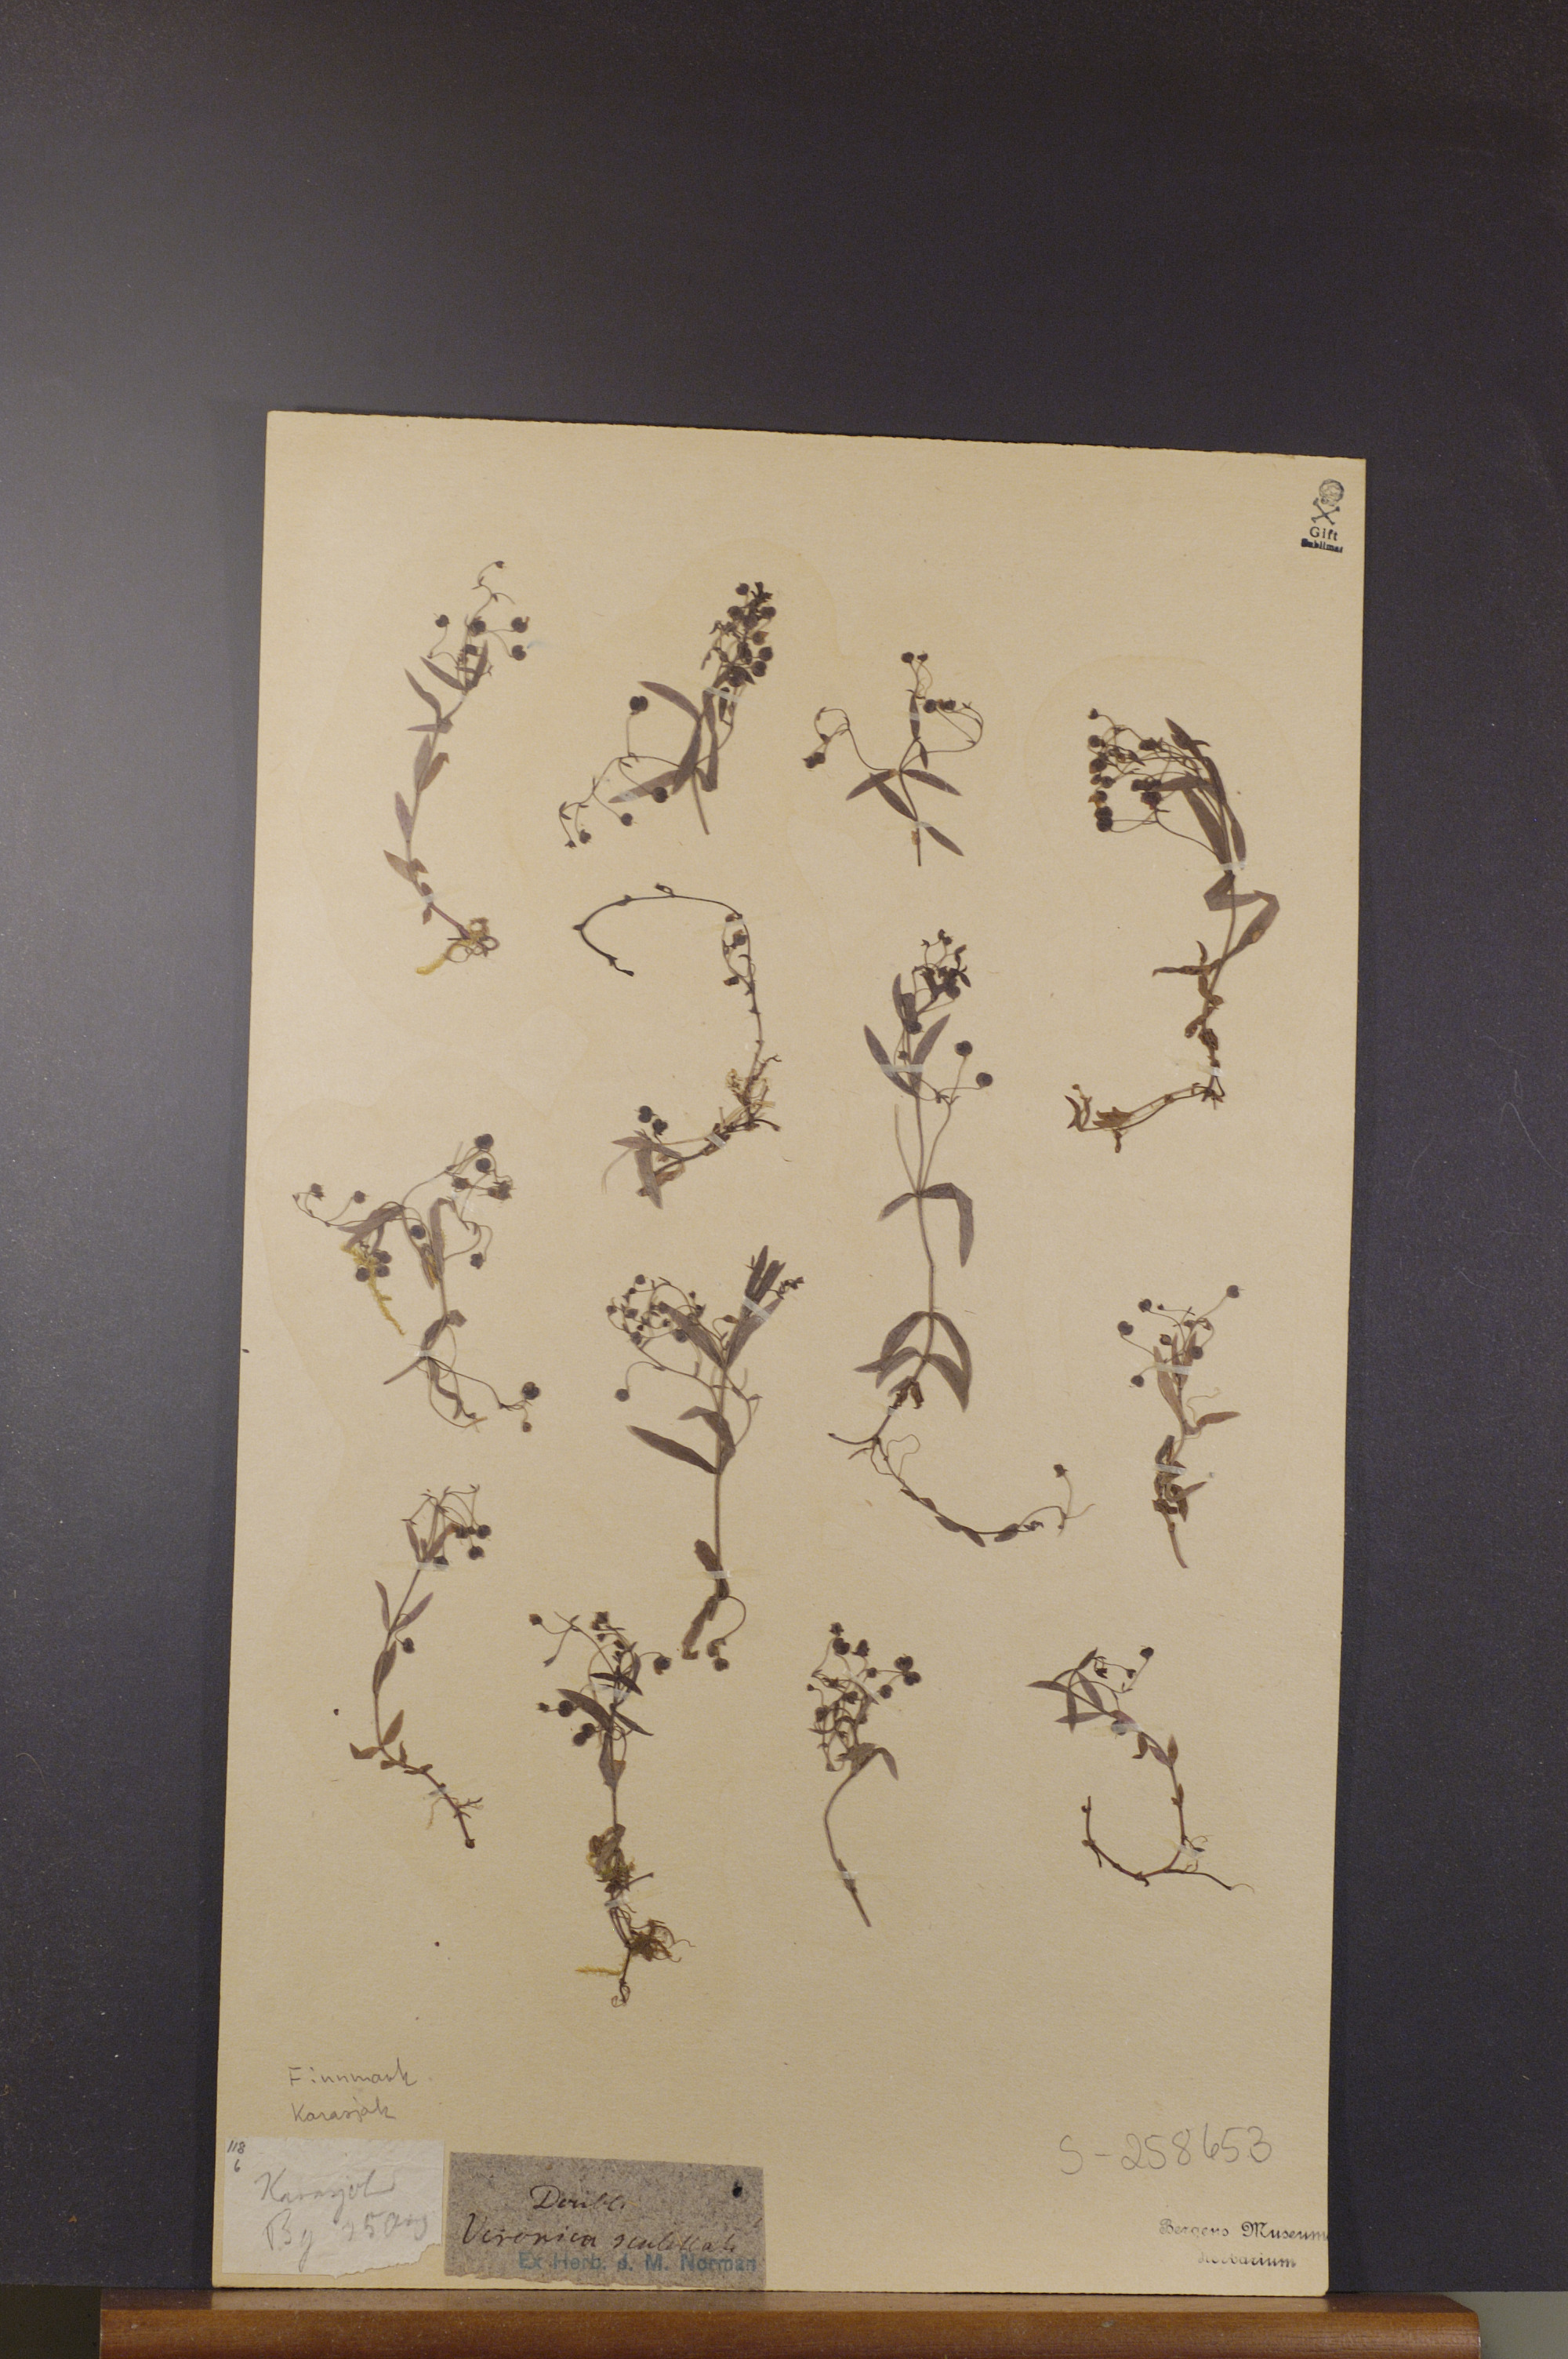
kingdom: Plantae
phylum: Tracheophyta
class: Magnoliopsida
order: Lamiales
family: Plantaginaceae
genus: Veronica
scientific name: Veronica scutellata
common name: Marsh speedwell
